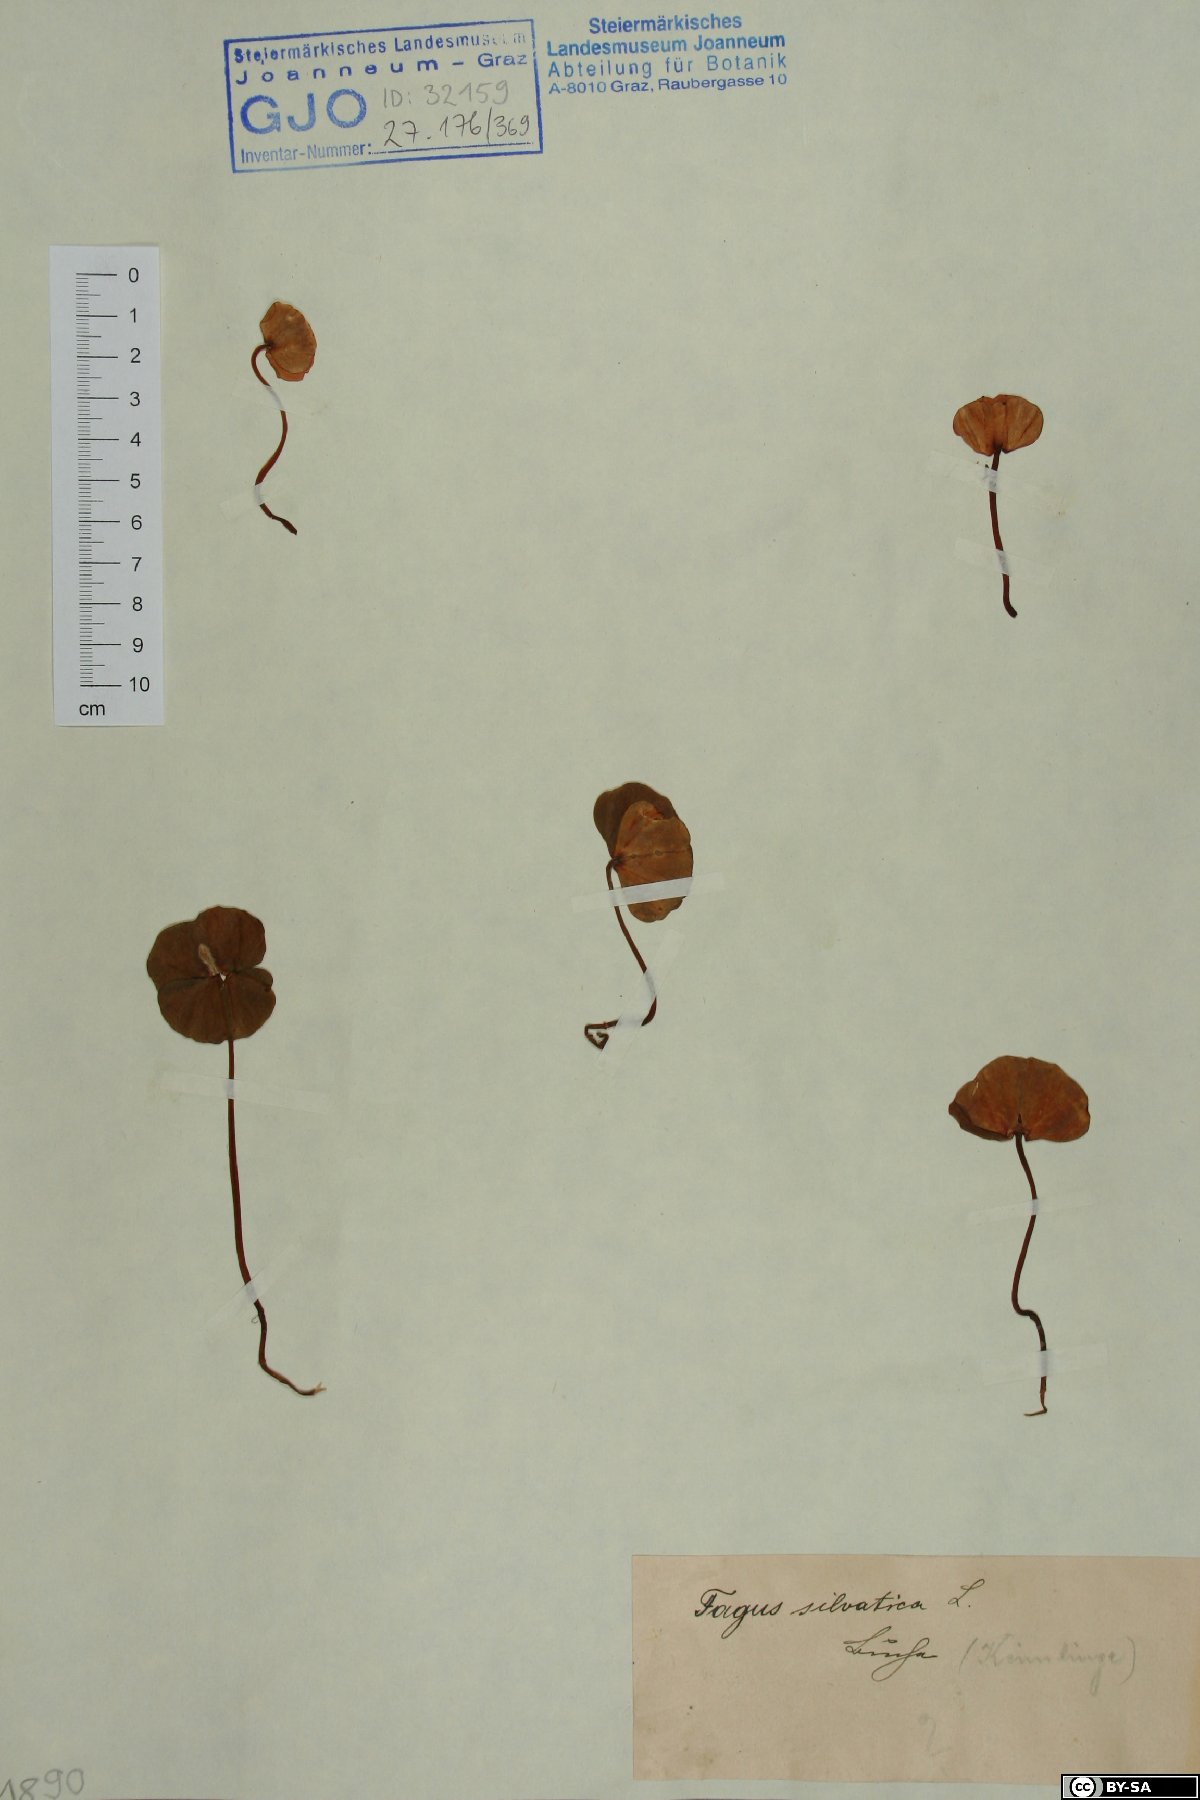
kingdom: Plantae
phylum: Tracheophyta
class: Magnoliopsida
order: Fagales
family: Fagaceae
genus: Fagus
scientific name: Fagus sylvatica
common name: Beech
